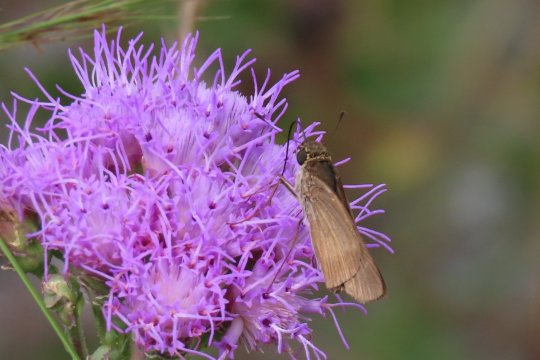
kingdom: Animalia
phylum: Arthropoda
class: Insecta
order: Lepidoptera
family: Hesperiidae
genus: Panoquina
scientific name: Panoquina ocola
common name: Ocola Skipper
